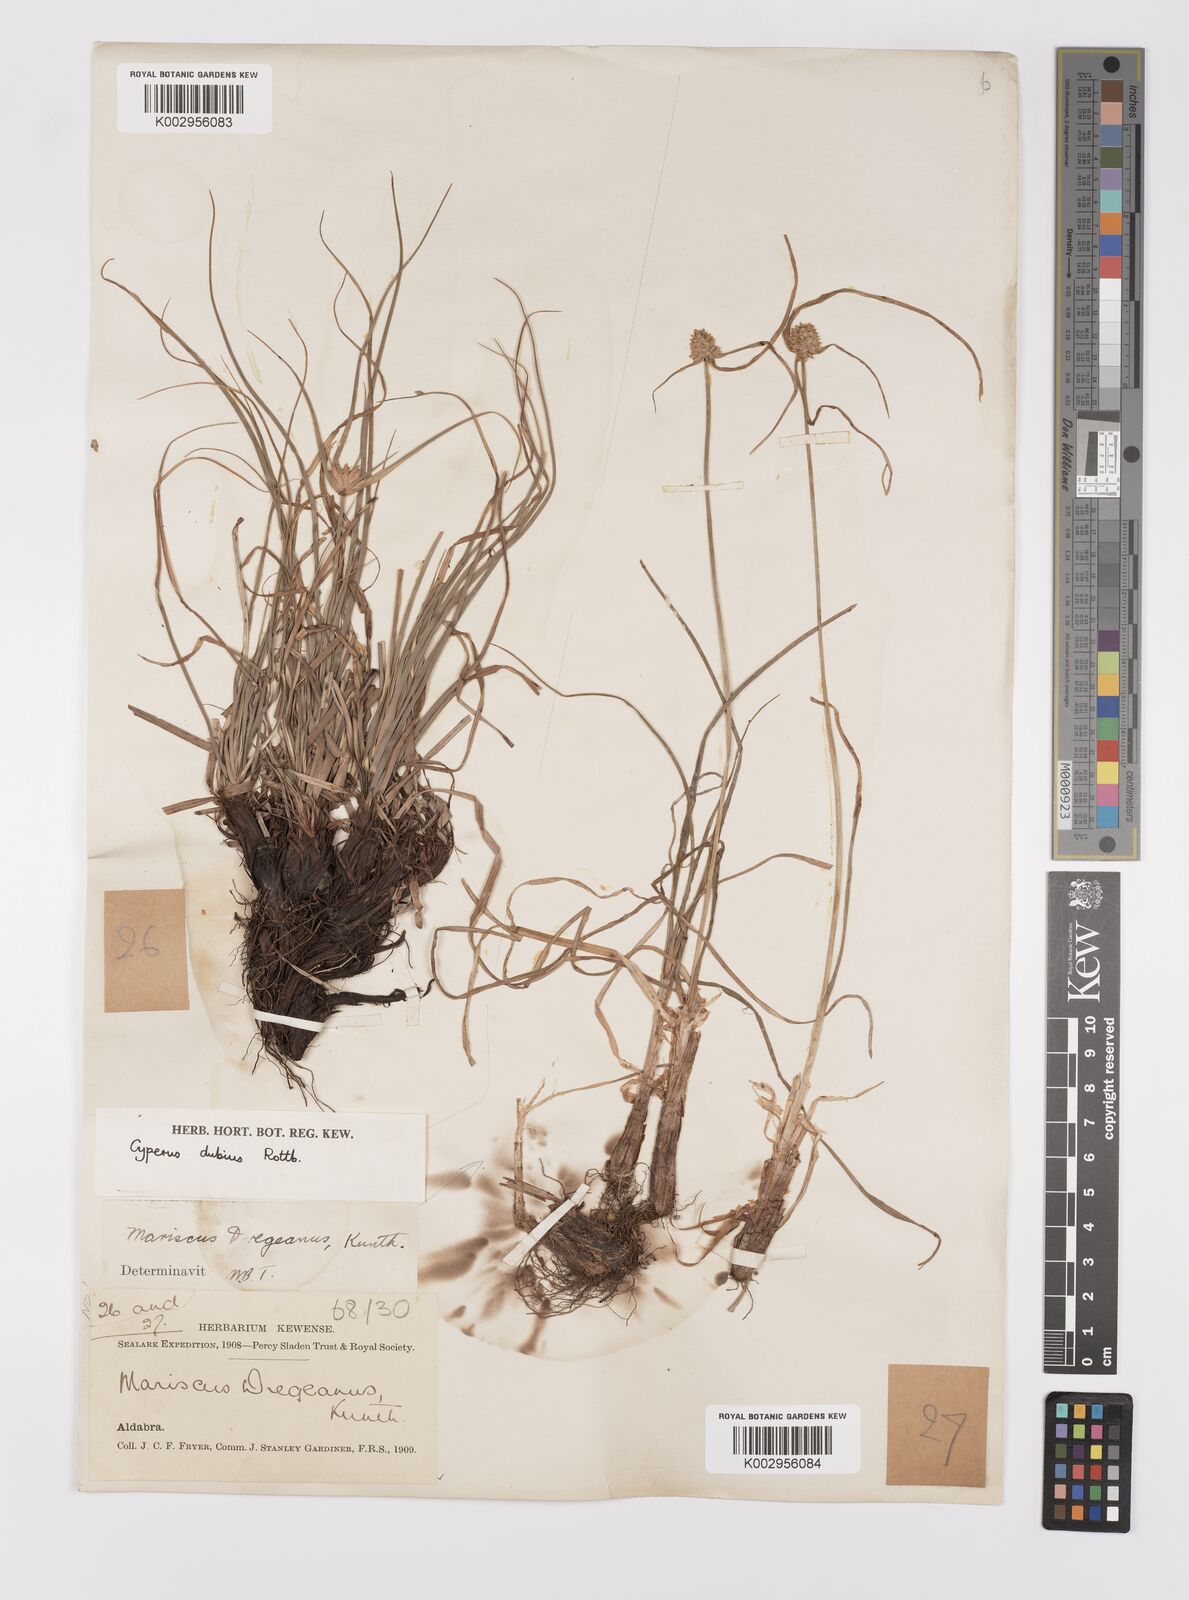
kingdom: Plantae
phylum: Tracheophyta
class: Liliopsida
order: Poales
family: Cyperaceae
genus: Cyperus
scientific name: Cyperus dubius
